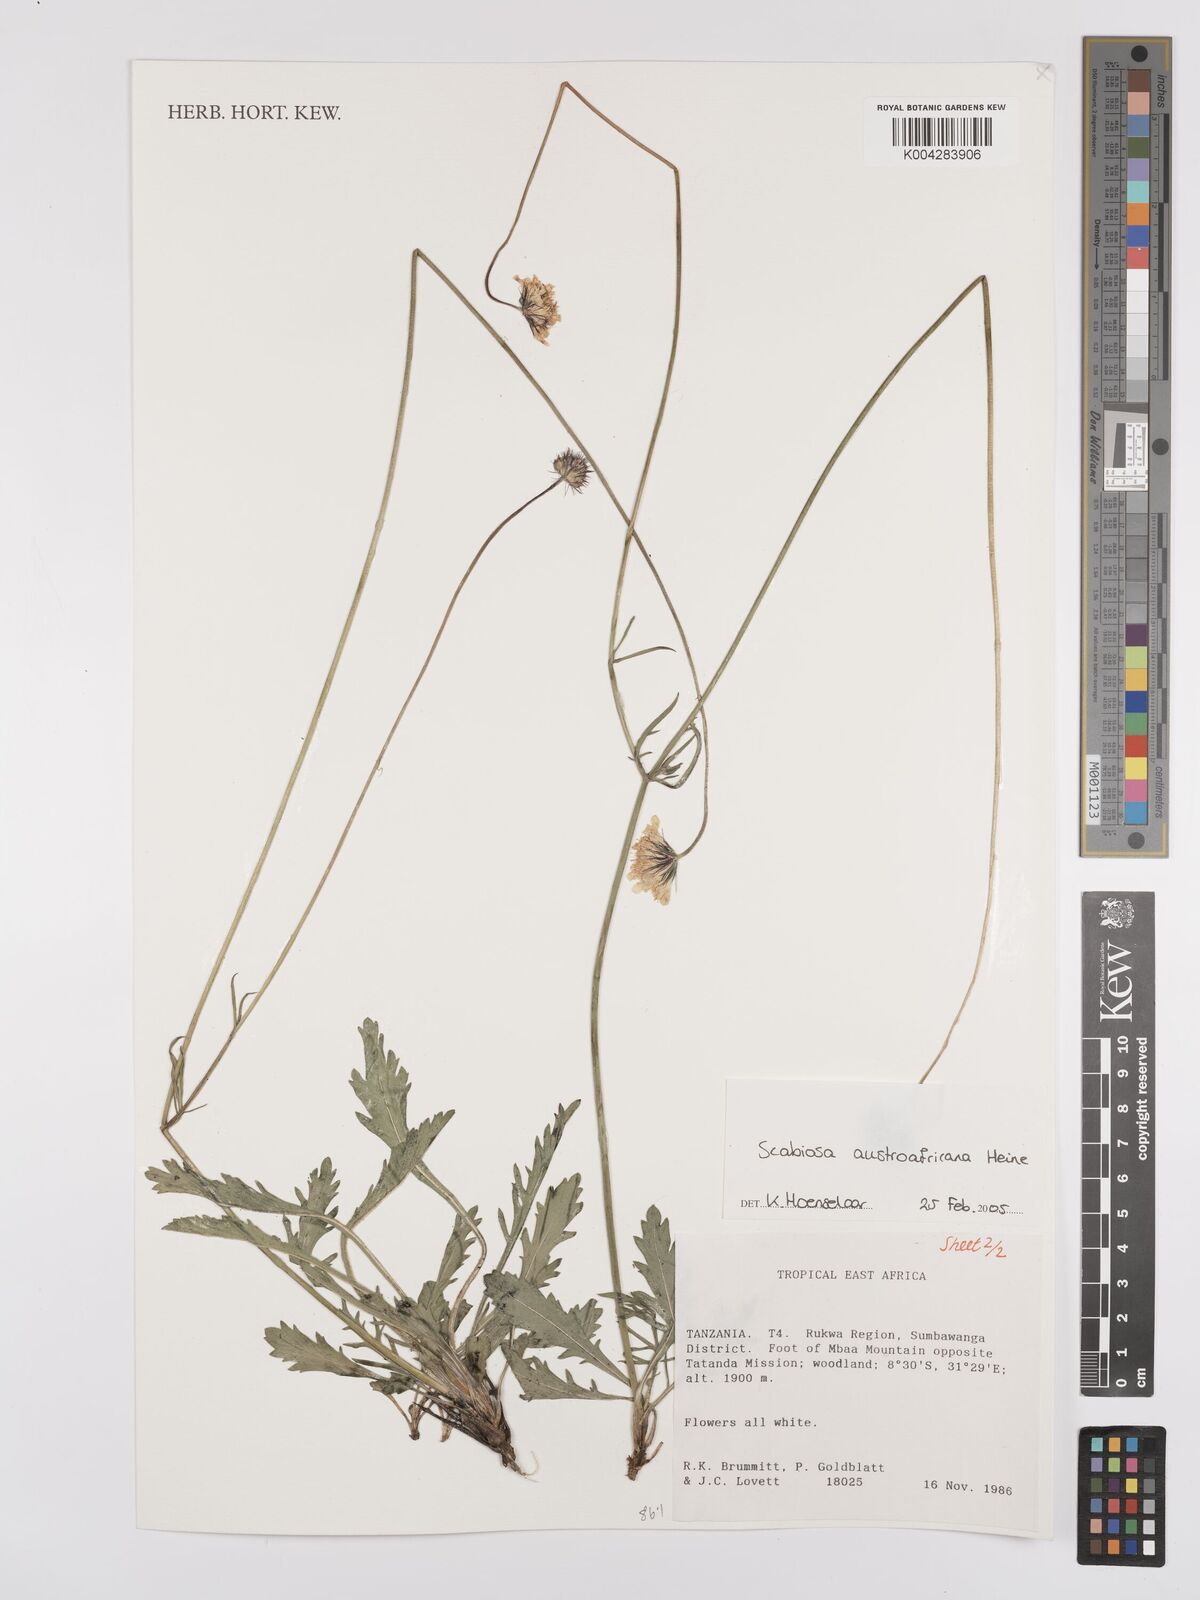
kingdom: Plantae
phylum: Tracheophyta
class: Magnoliopsida
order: Dipsacales
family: Caprifoliaceae
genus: Scabiosa
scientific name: Scabiosa austroafricana
